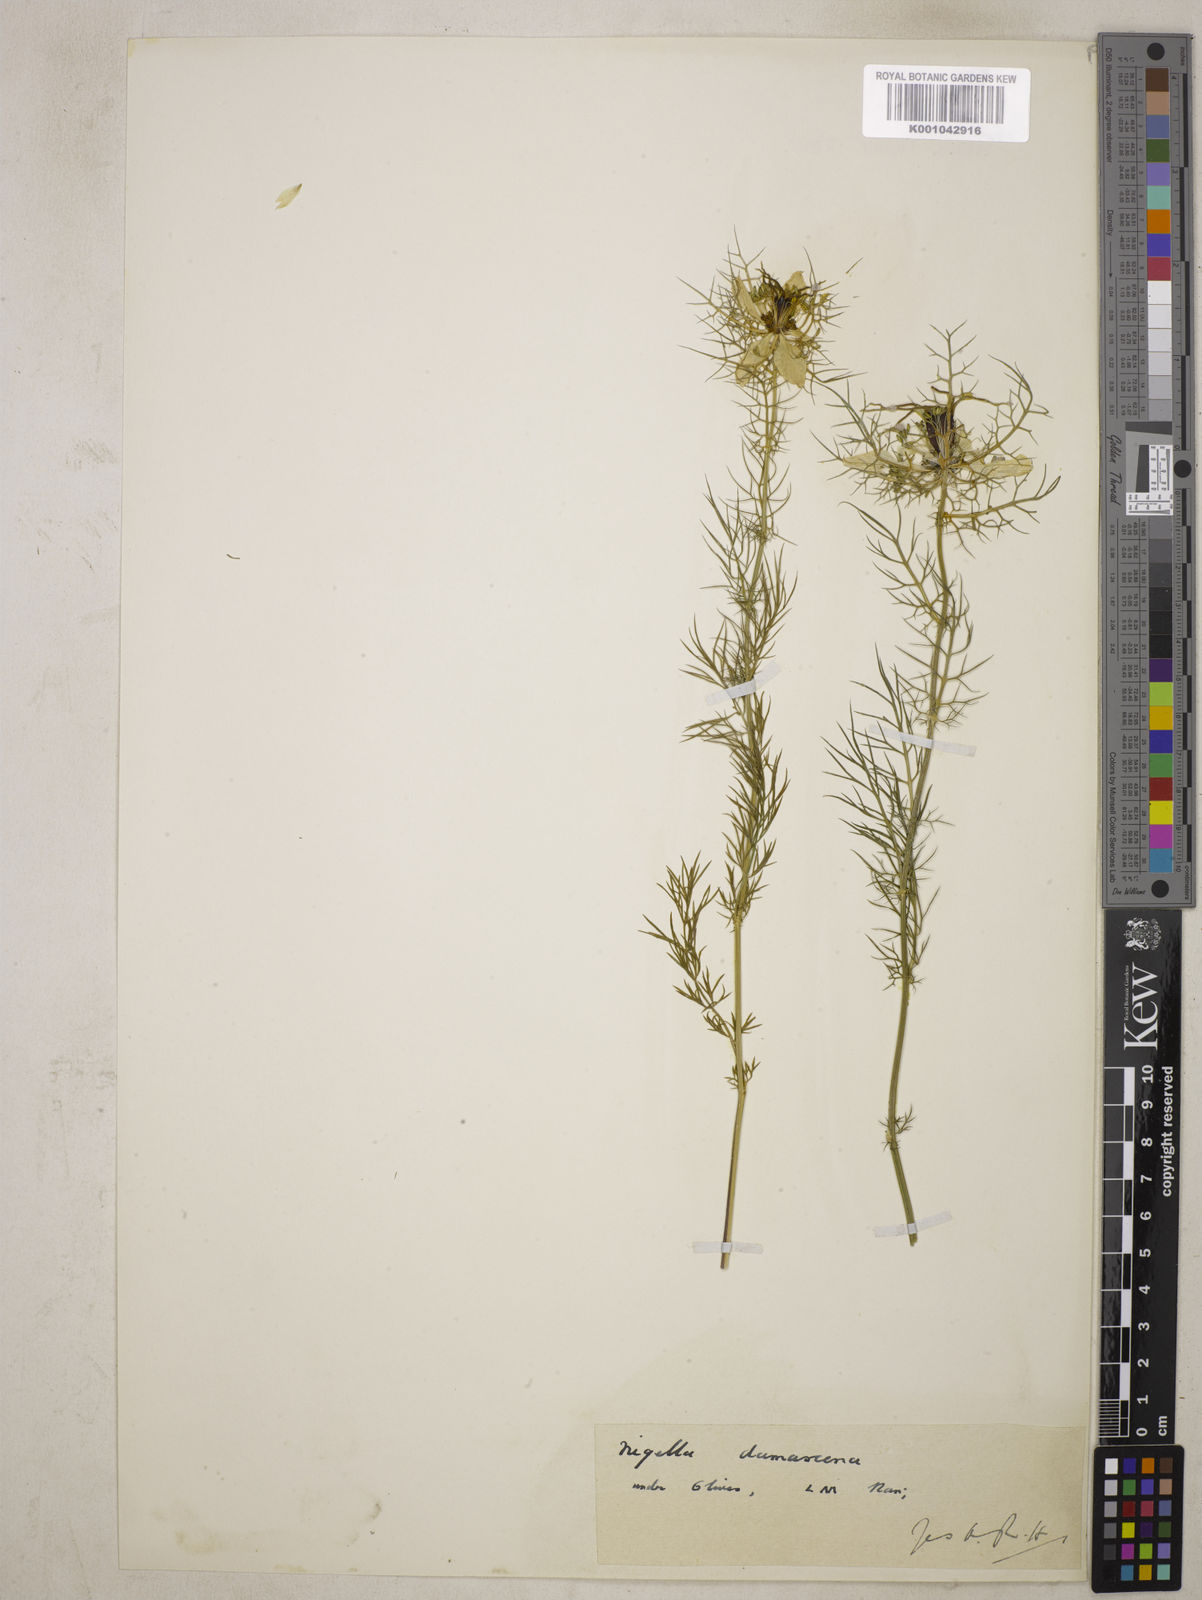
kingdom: Plantae
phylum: Tracheophyta
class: Magnoliopsida
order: Ranunculales
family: Ranunculaceae
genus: Nigella
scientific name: Nigella damascena
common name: Love-in-a-mist
